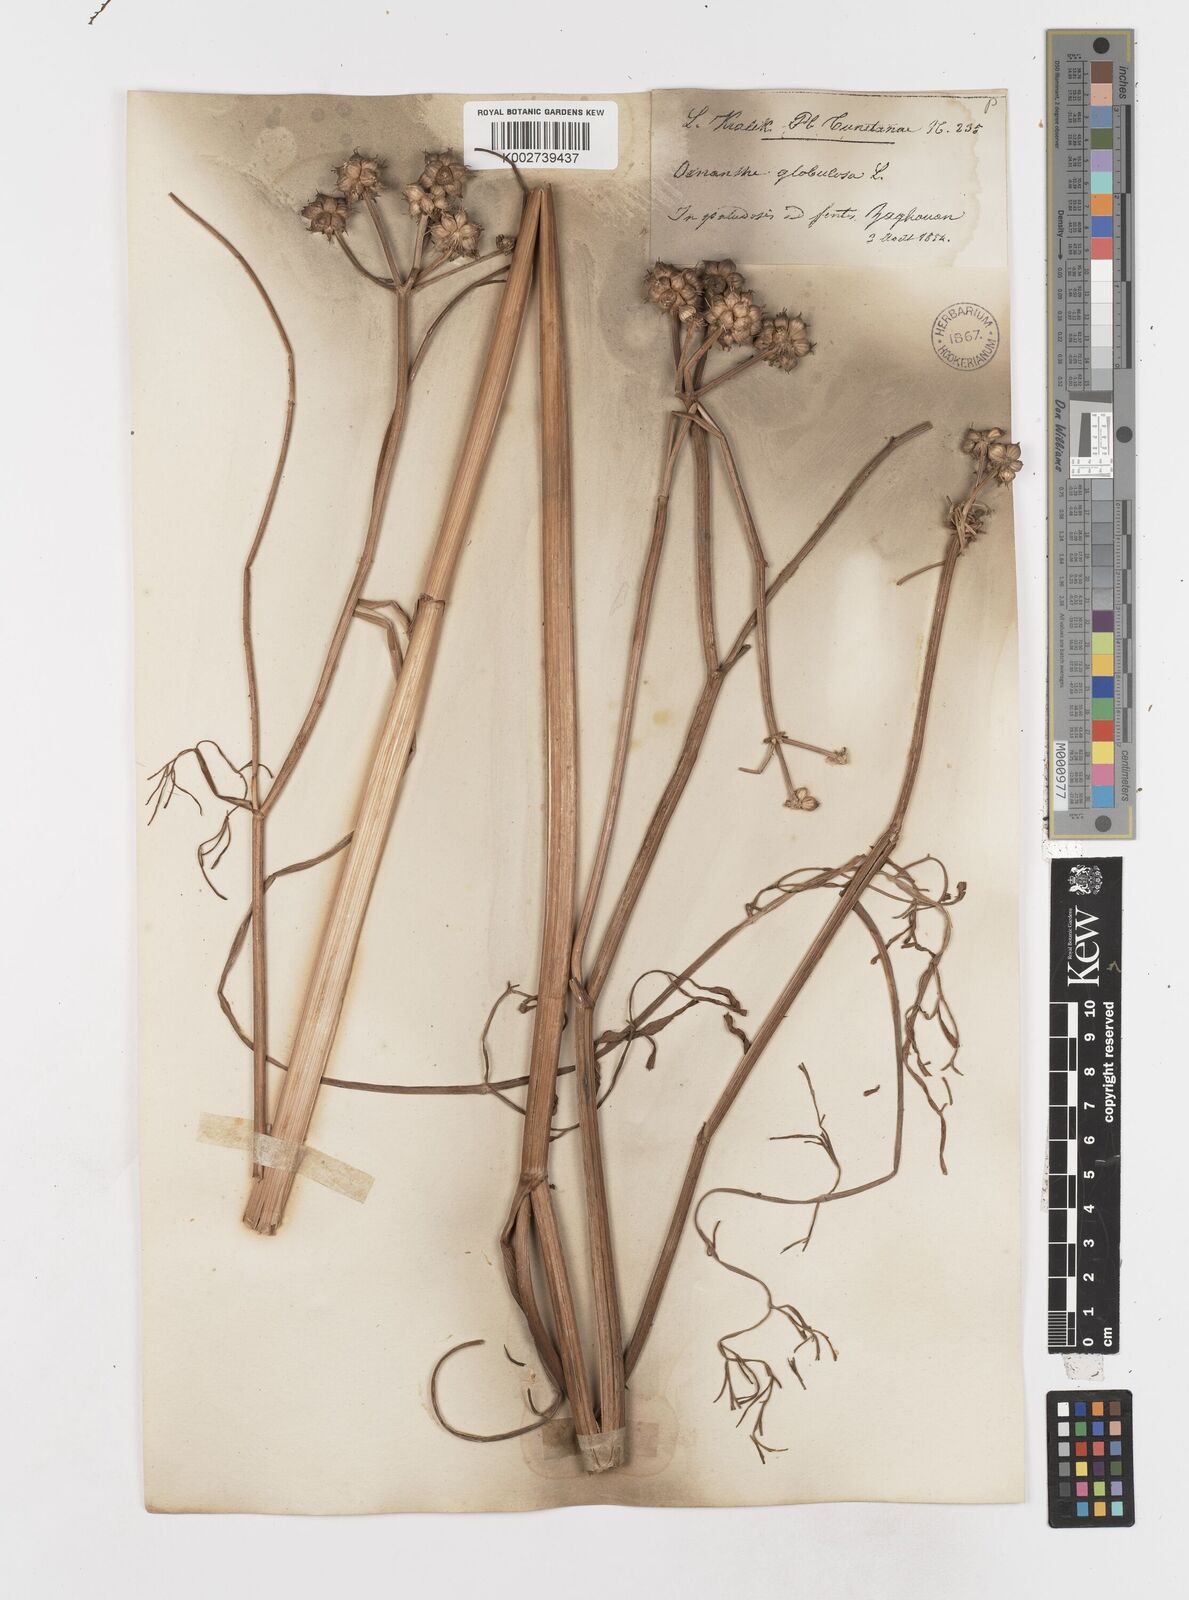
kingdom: Plantae
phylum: Tracheophyta
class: Magnoliopsida
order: Apiales
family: Apiaceae
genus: Oenanthe
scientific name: Oenanthe globulosa
